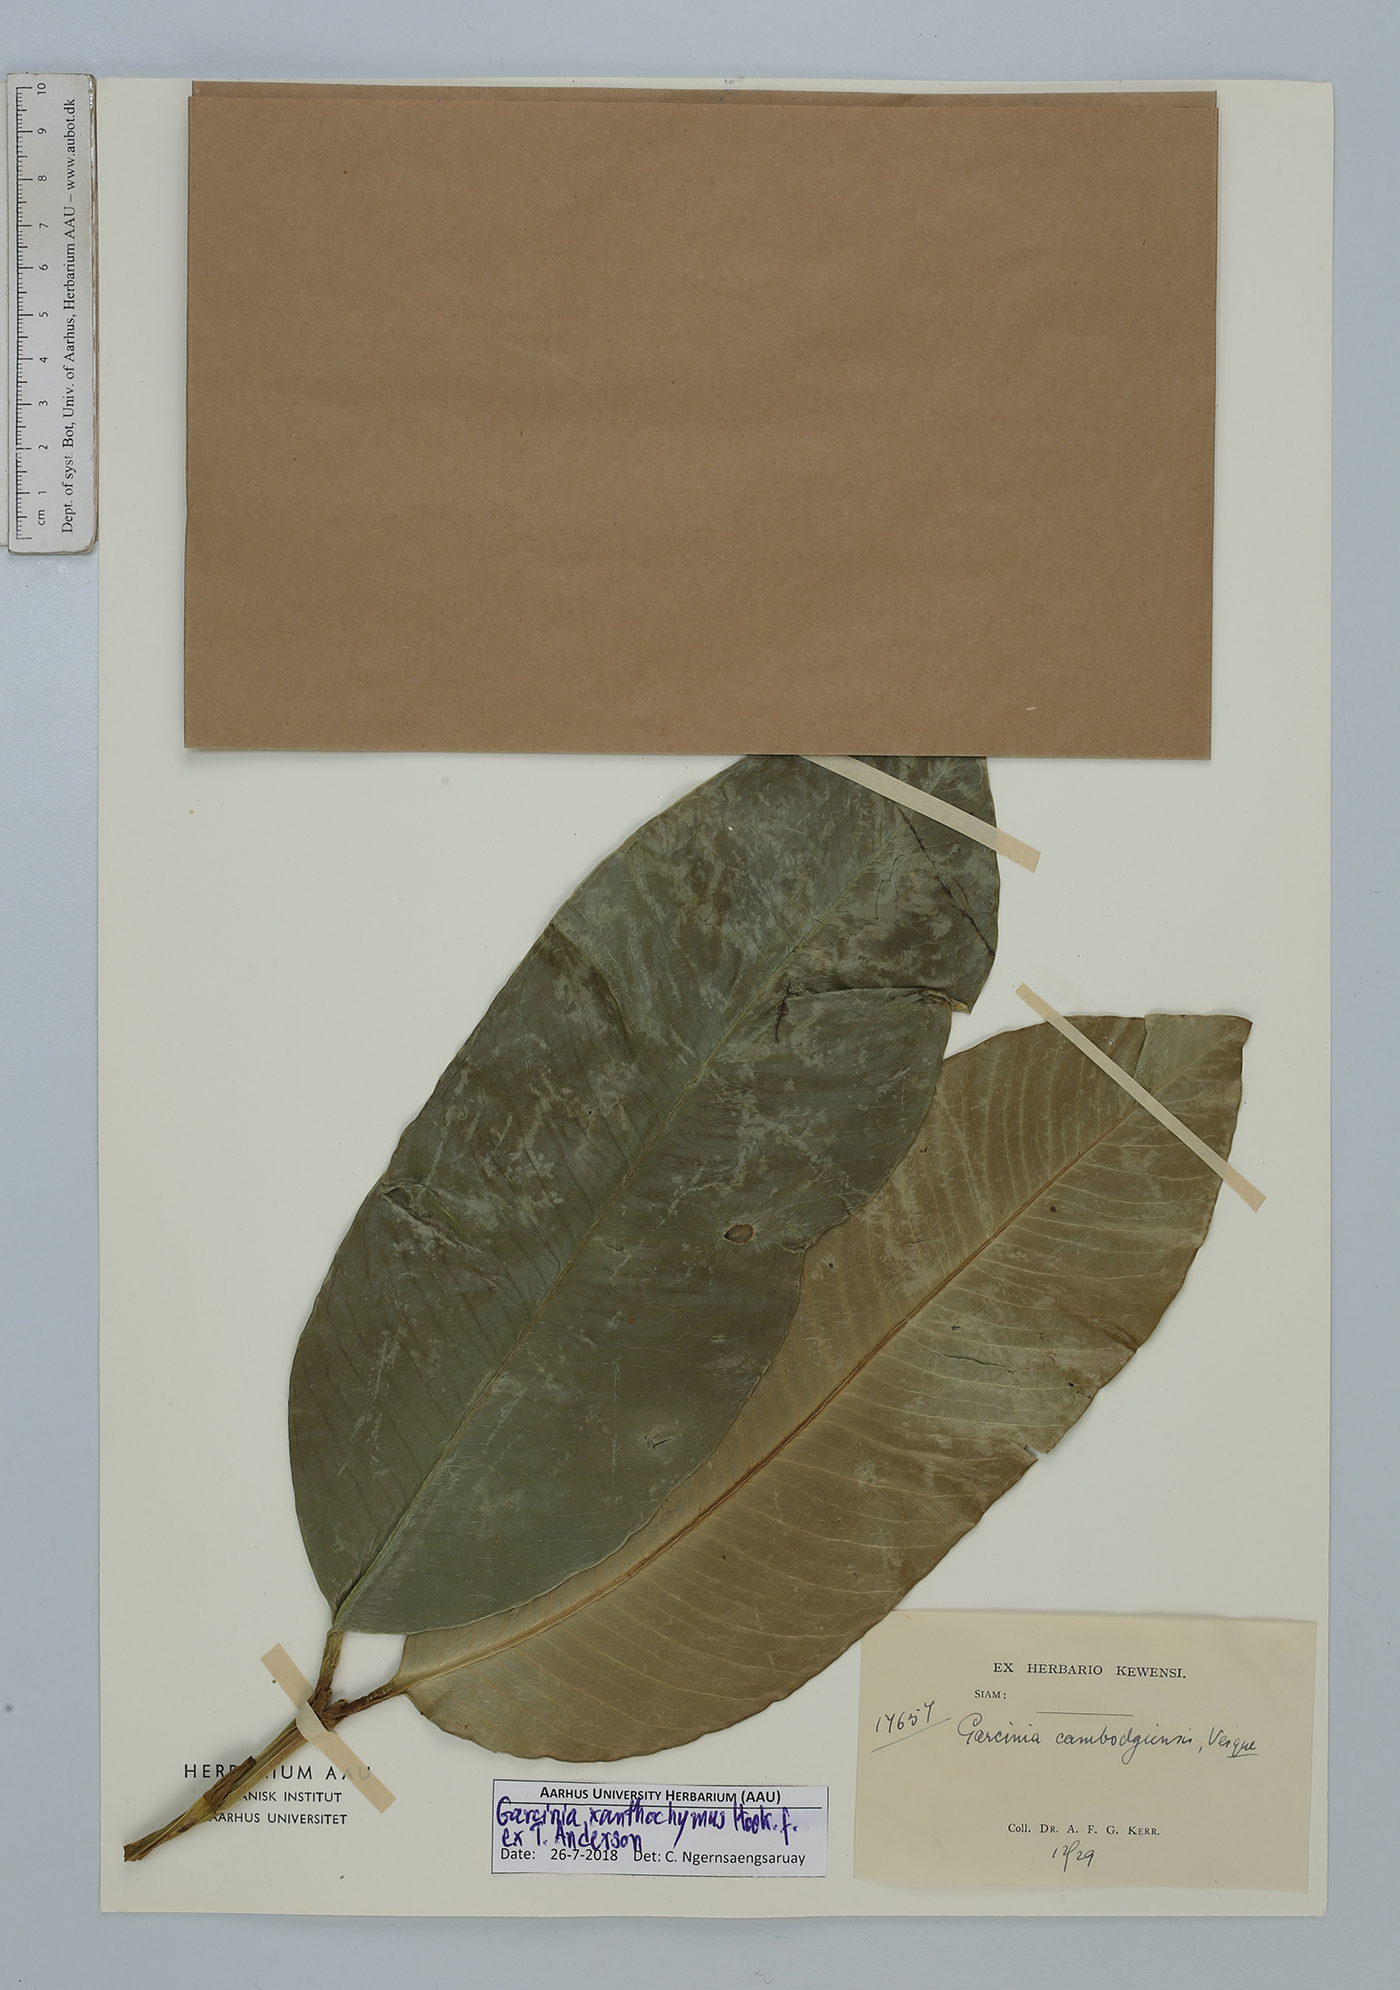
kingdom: Plantae
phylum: Tracheophyta
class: Magnoliopsida
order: Malpighiales
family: Clusiaceae
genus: Garcinia
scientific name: Garcinia xanthochymus
